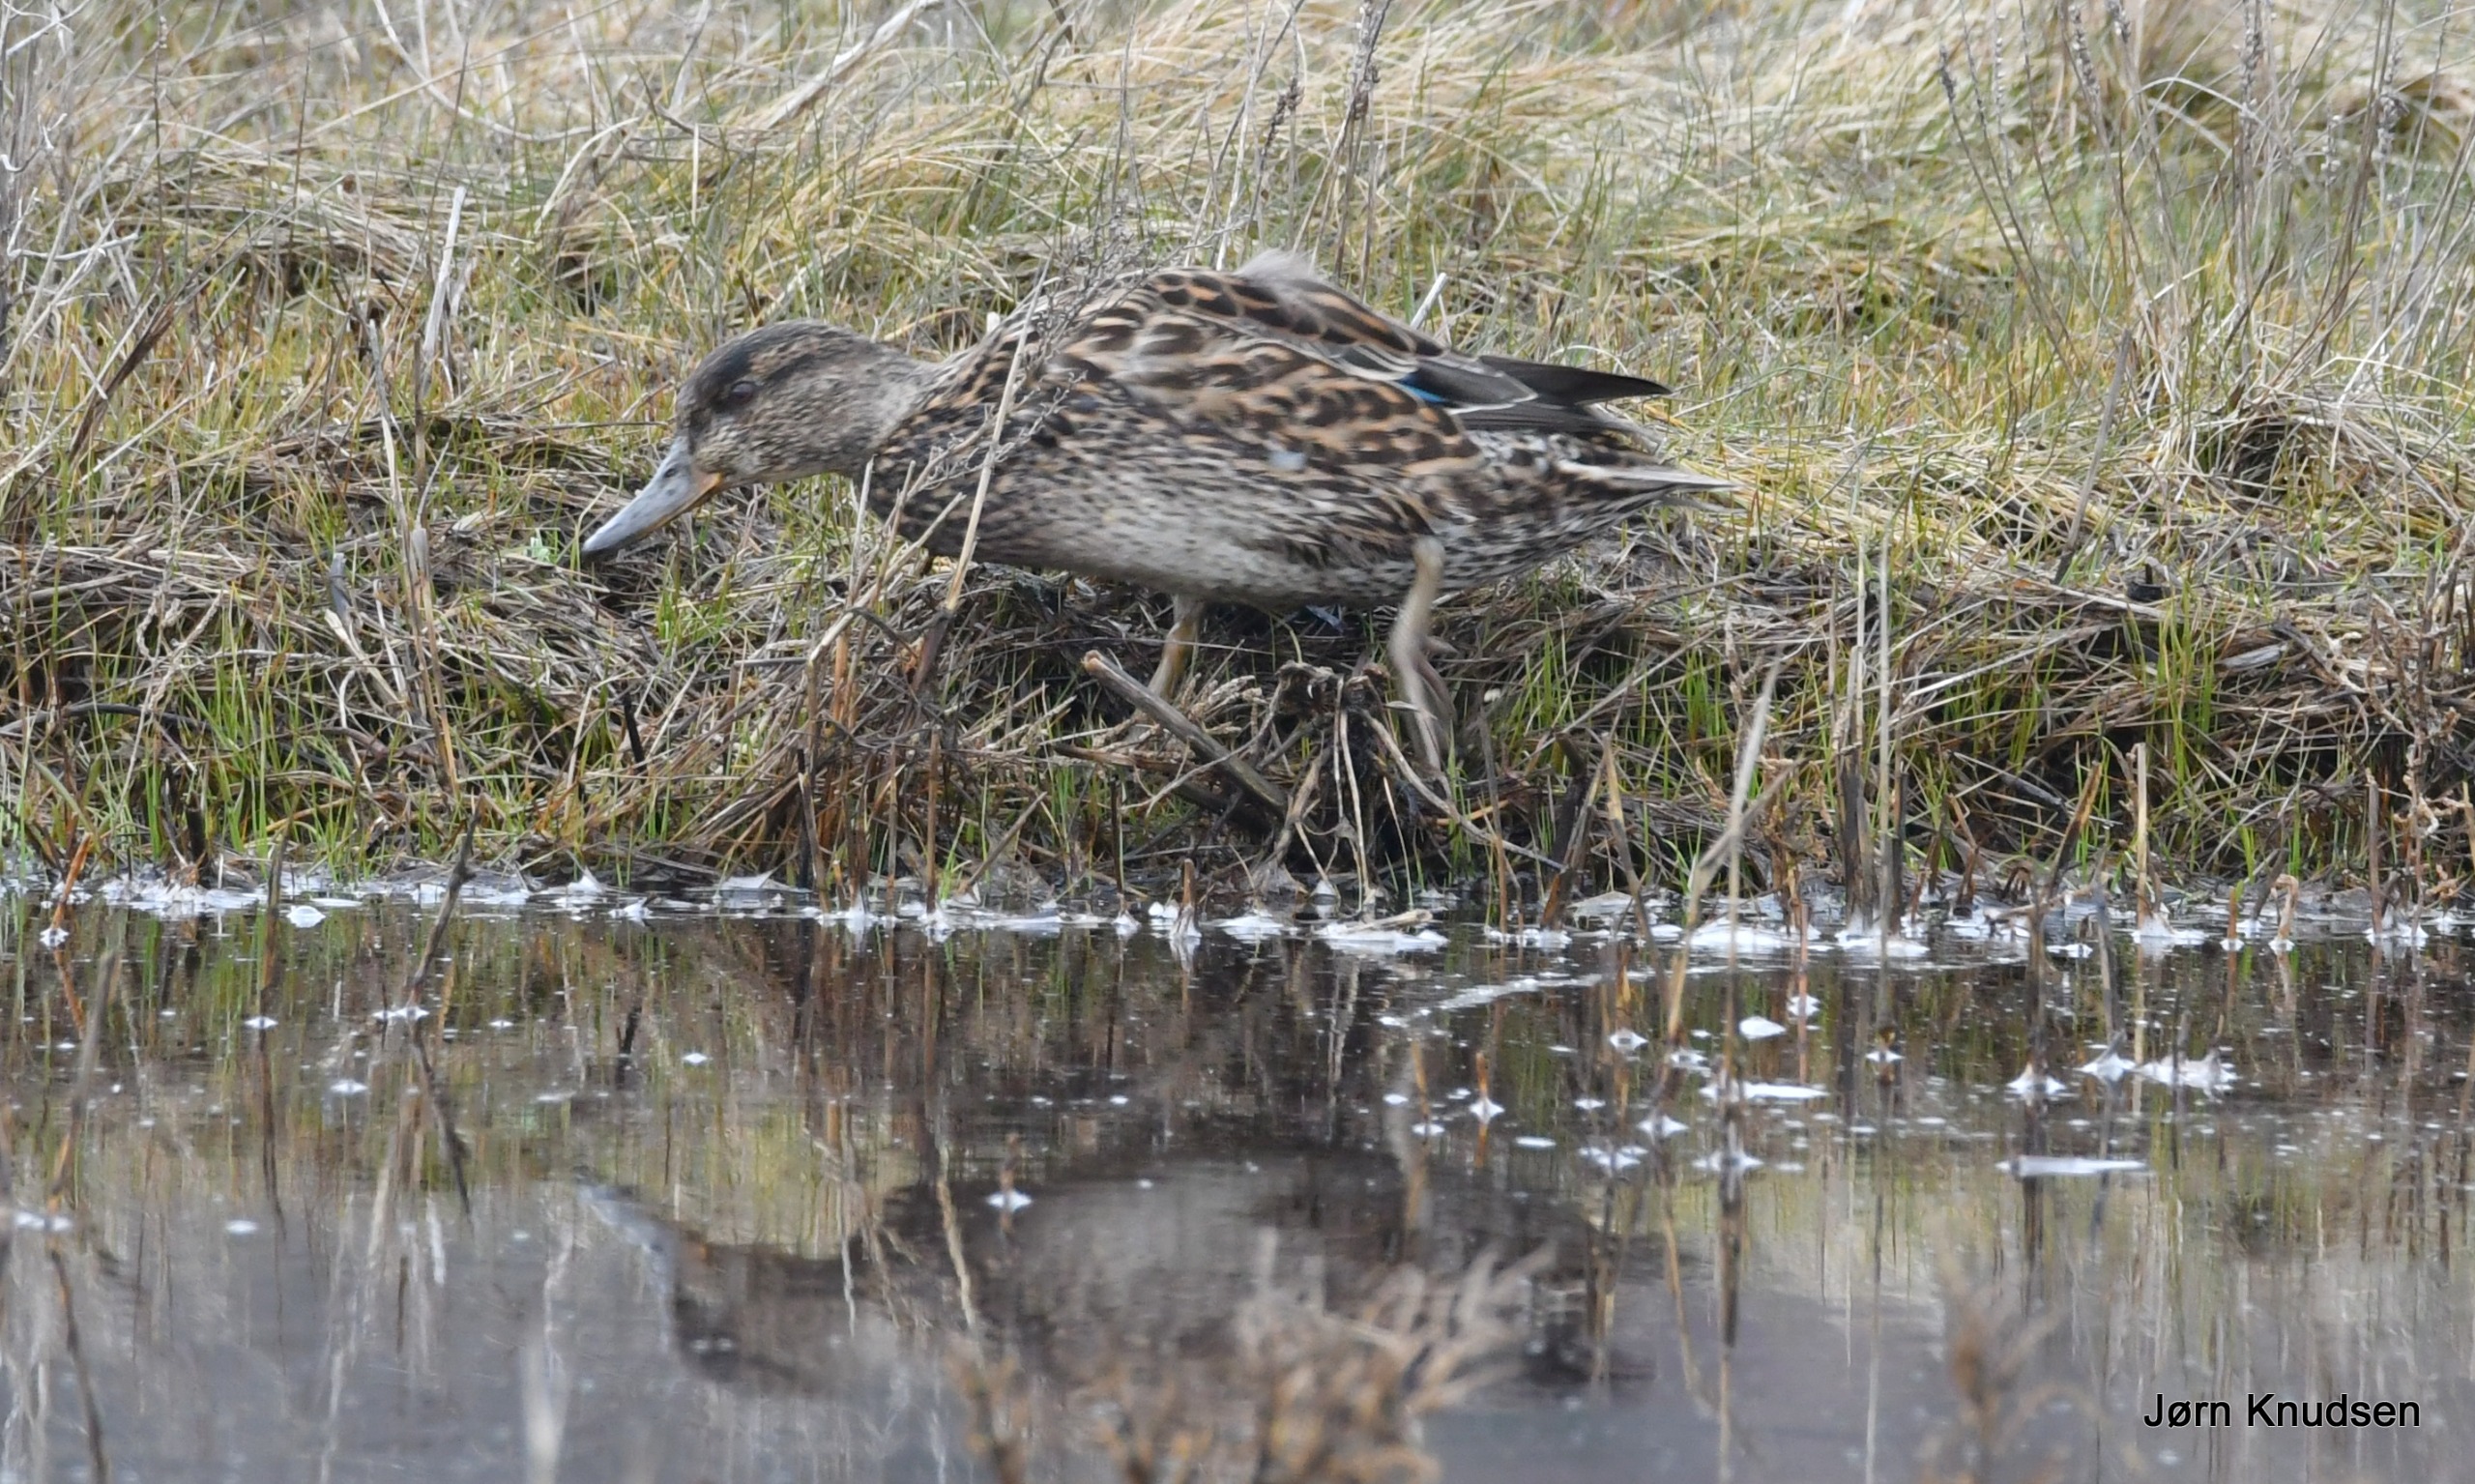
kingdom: Animalia
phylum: Chordata
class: Aves
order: Anseriformes
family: Anatidae
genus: Anas
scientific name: Anas crecca
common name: Krikand
